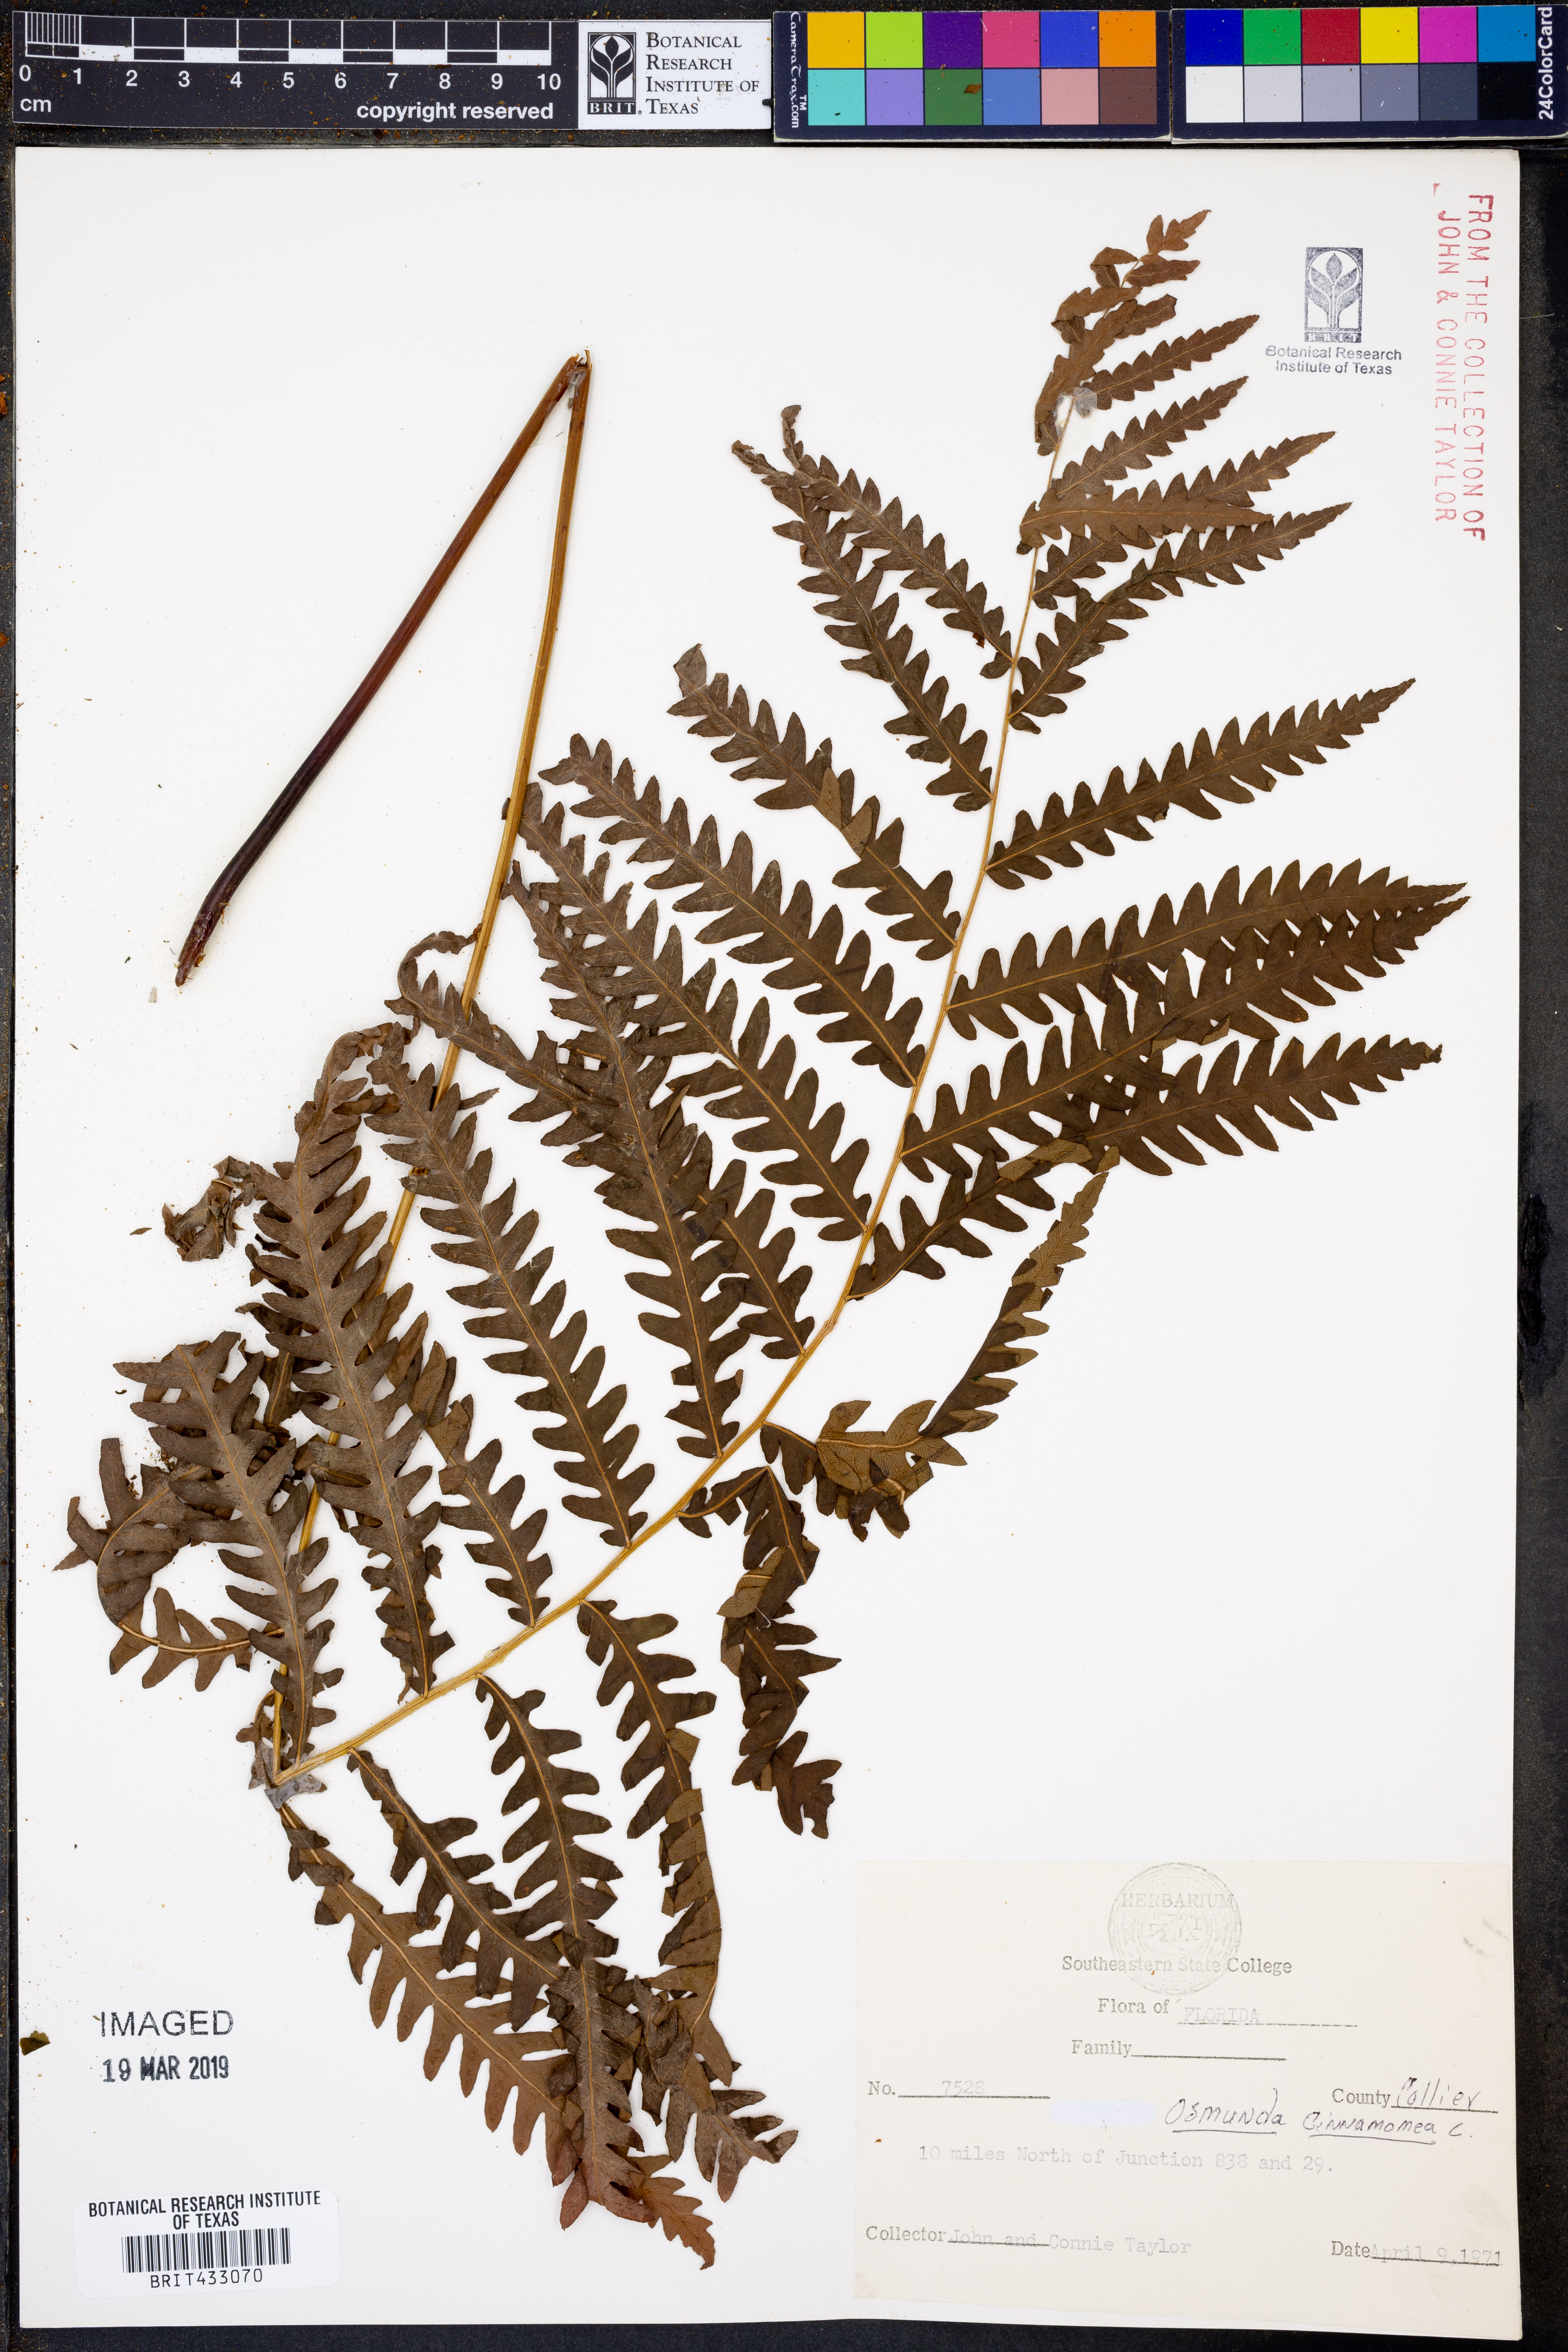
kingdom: Plantae
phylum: Tracheophyta
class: Polypodiopsida
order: Osmundales
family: Osmundaceae
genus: Osmundastrum
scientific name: Osmundastrum cinnamomeum
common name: Cinnamon fern
